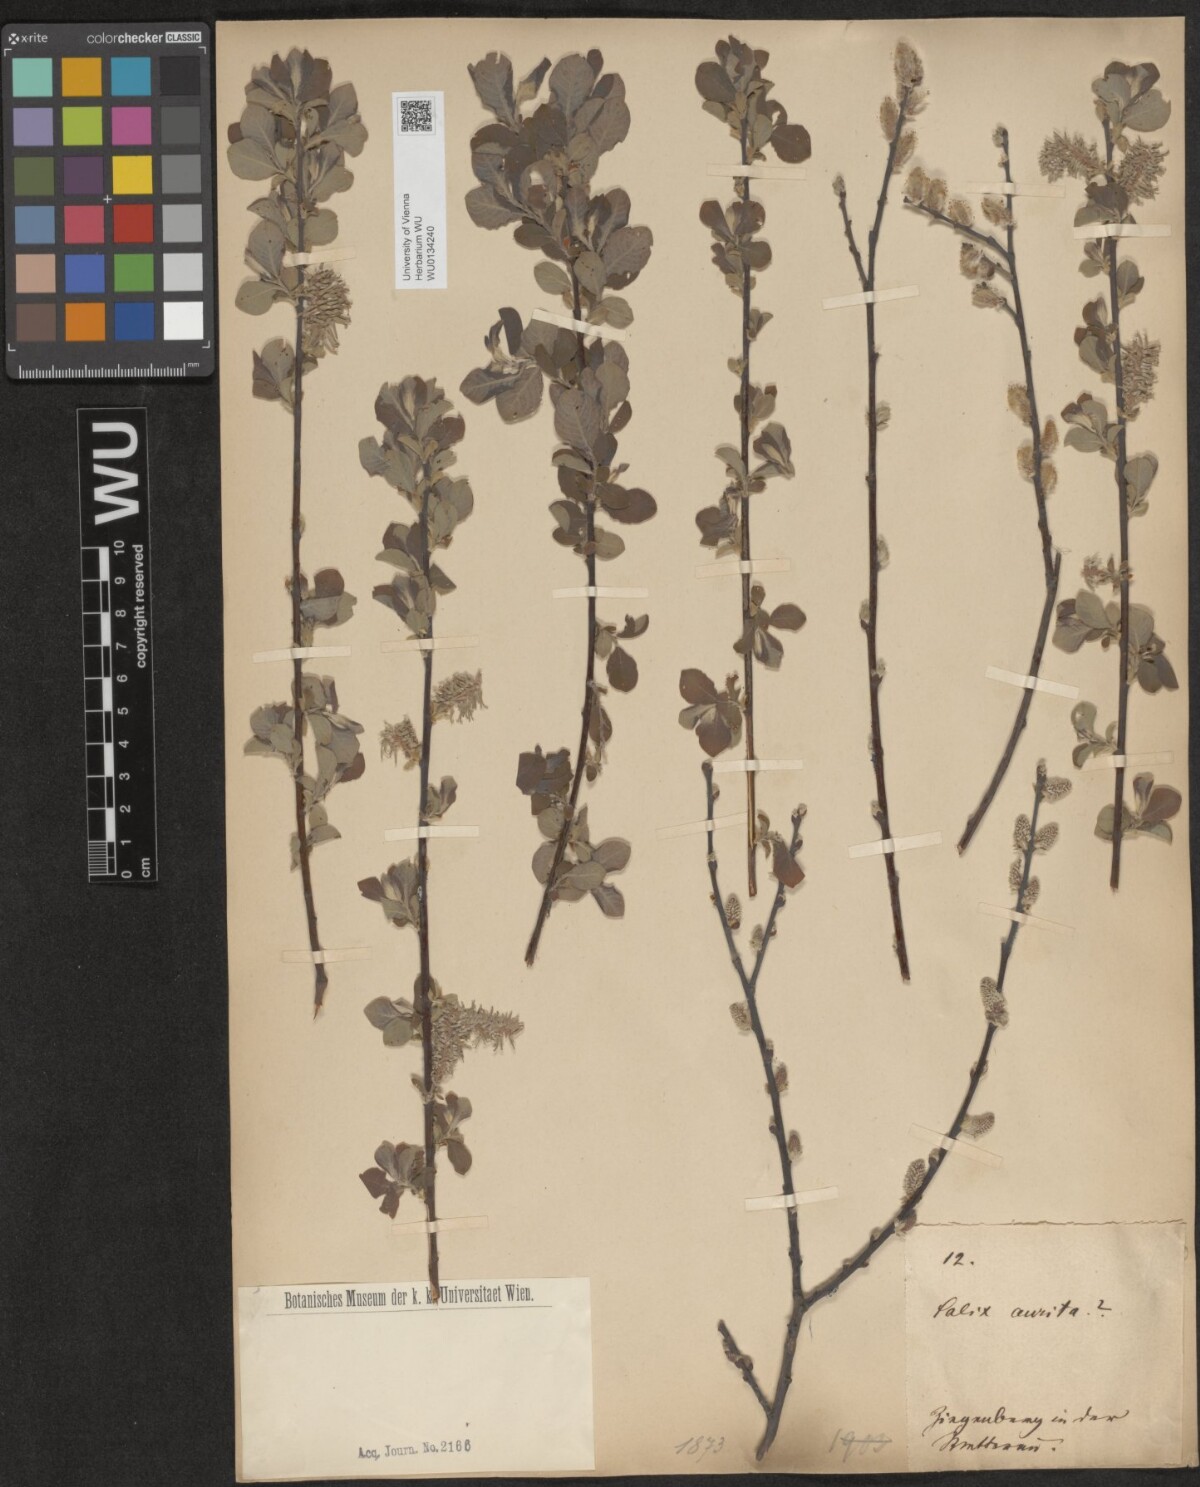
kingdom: Plantae
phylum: Tracheophyta
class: Magnoliopsida
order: Malpighiales
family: Salicaceae
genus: Salix
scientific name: Salix aurita
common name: Eared willow
